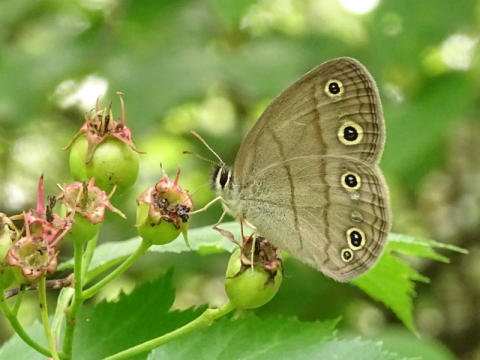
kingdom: Animalia
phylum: Arthropoda
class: Insecta
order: Lepidoptera
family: Nymphalidae
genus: Euptychia
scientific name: Euptychia cymela
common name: Little Wood Satyr
